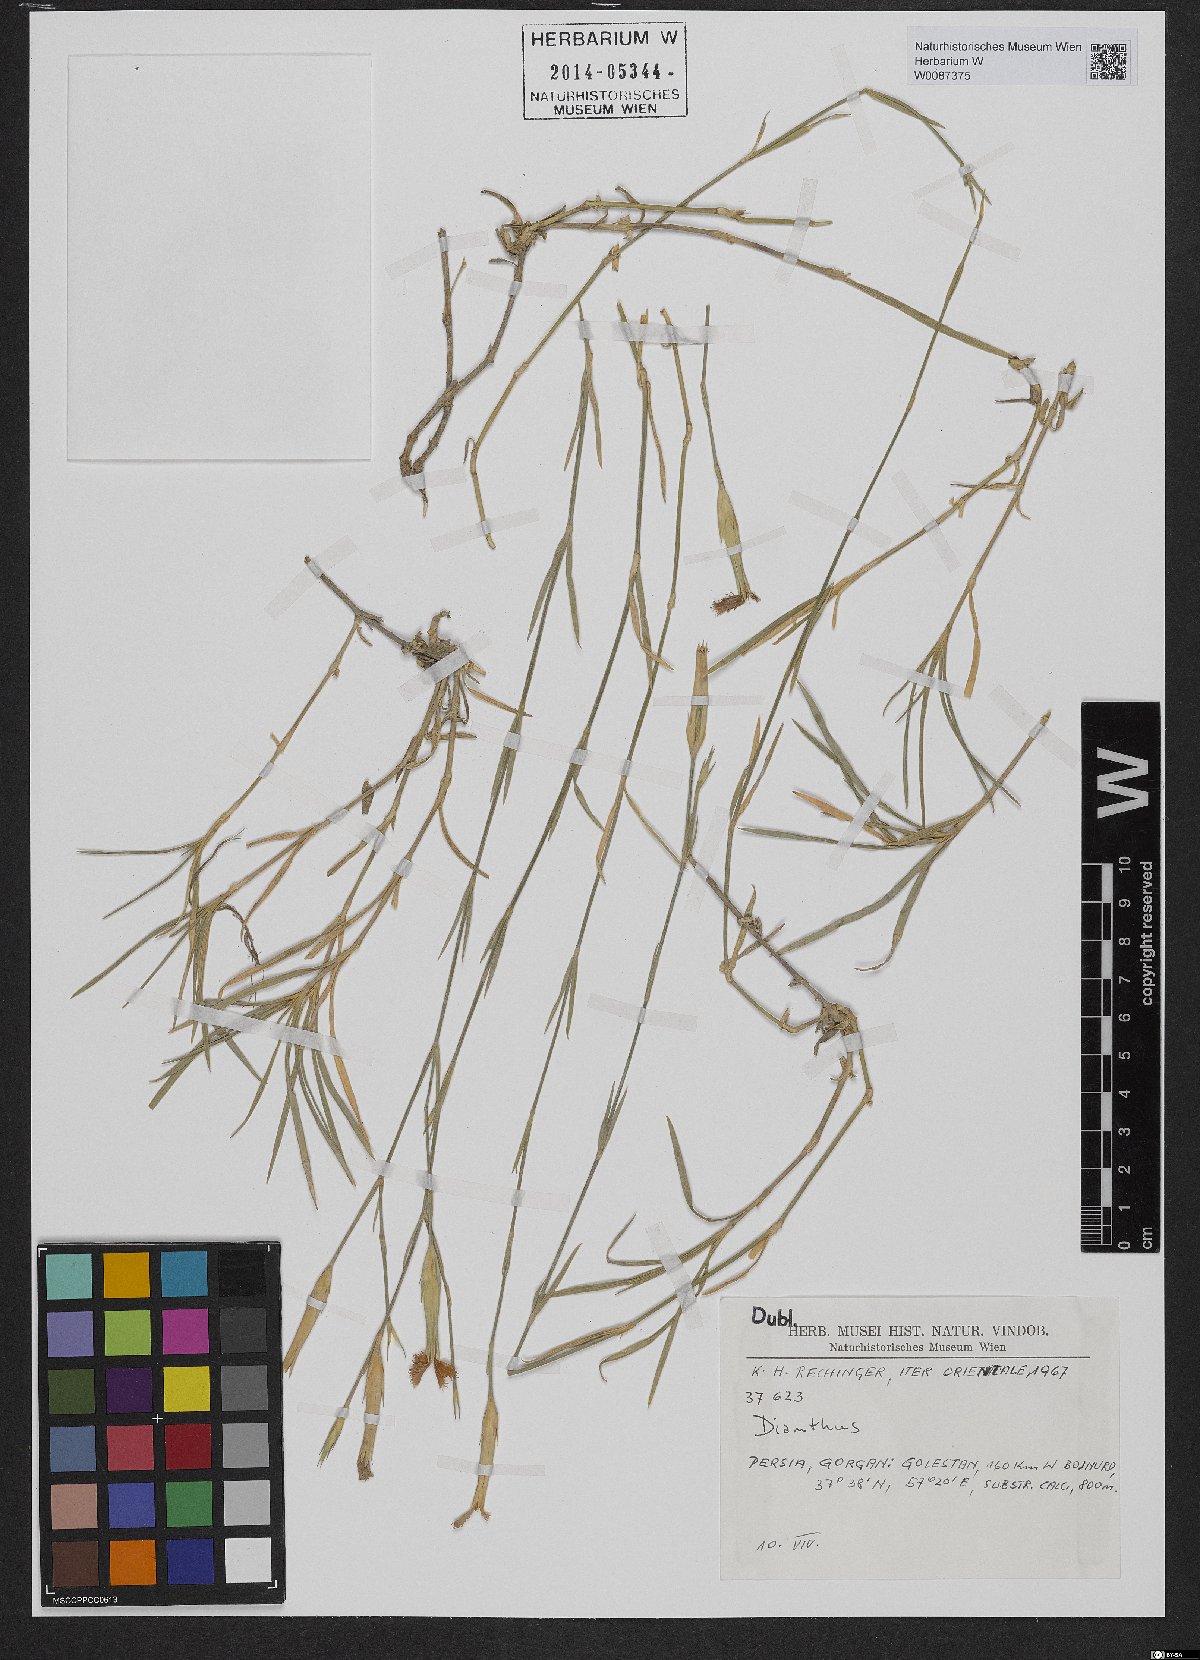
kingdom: Plantae
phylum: Tracheophyta
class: Magnoliopsida
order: Caryophyllales
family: Caryophyllaceae
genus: Dianthus
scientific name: Dianthus orientalis
